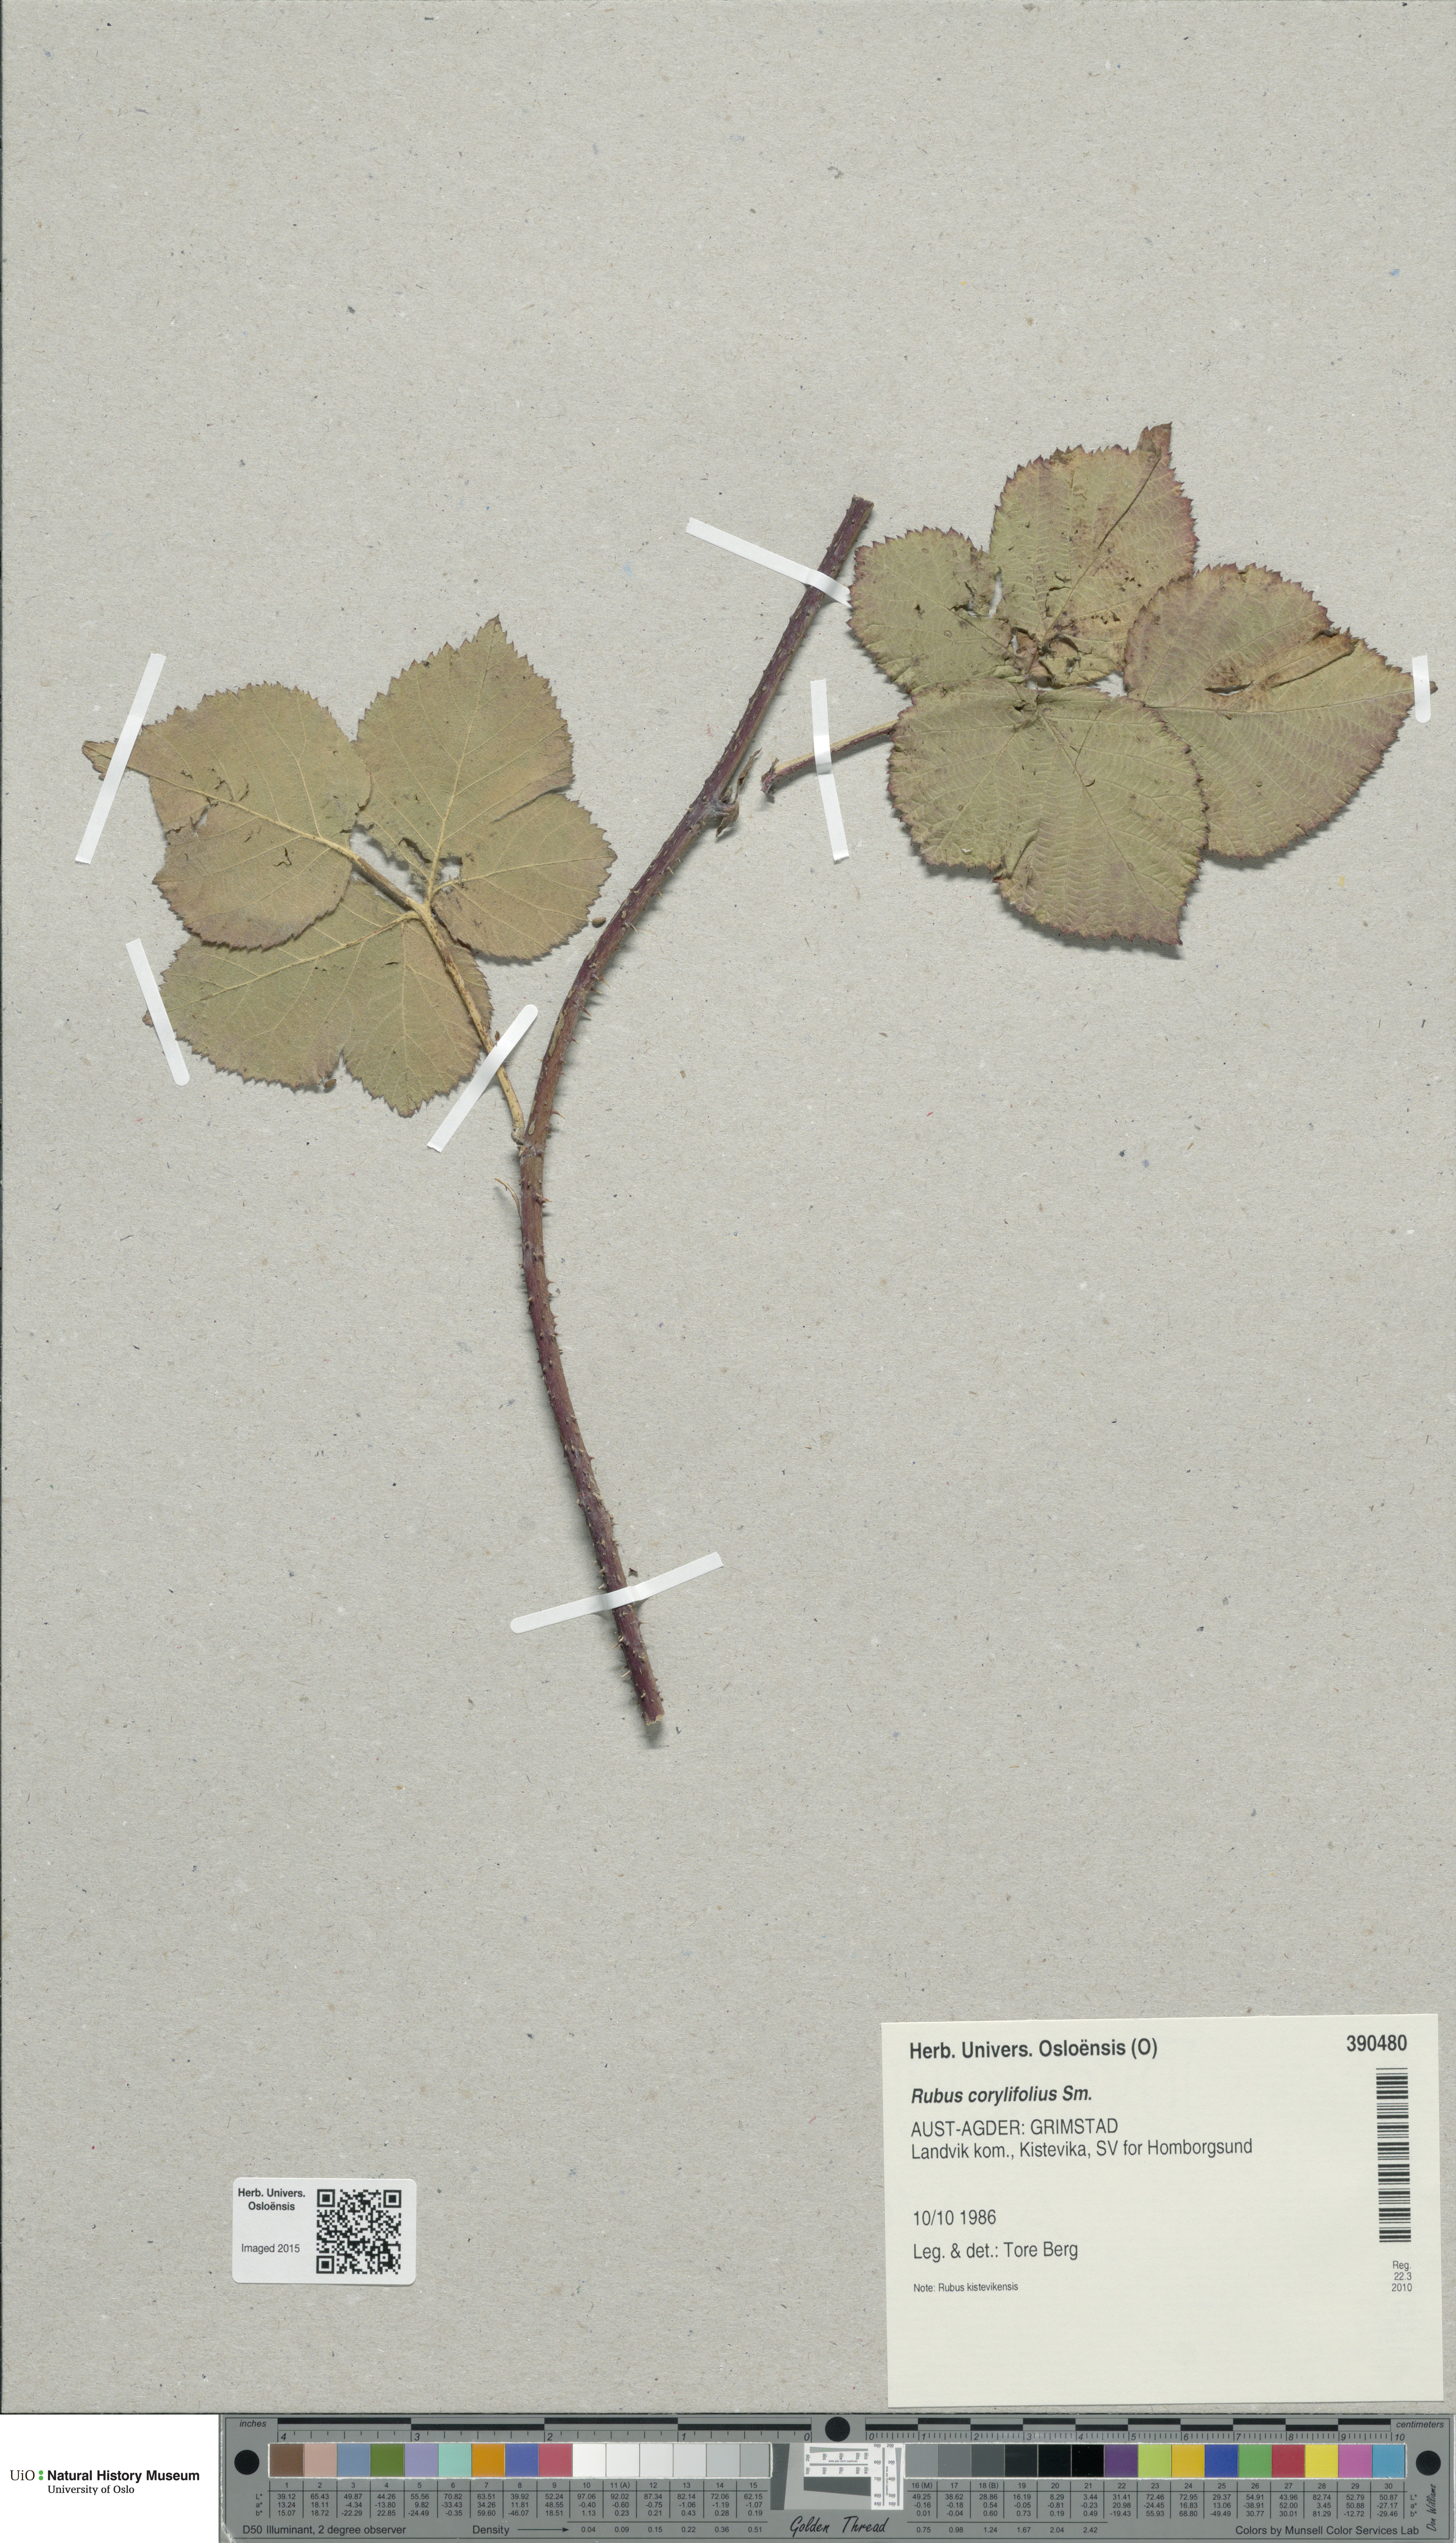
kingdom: Plantae
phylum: Tracheophyta
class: Magnoliopsida
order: Rosales
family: Rosaceae
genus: Rubus
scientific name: Rubus
